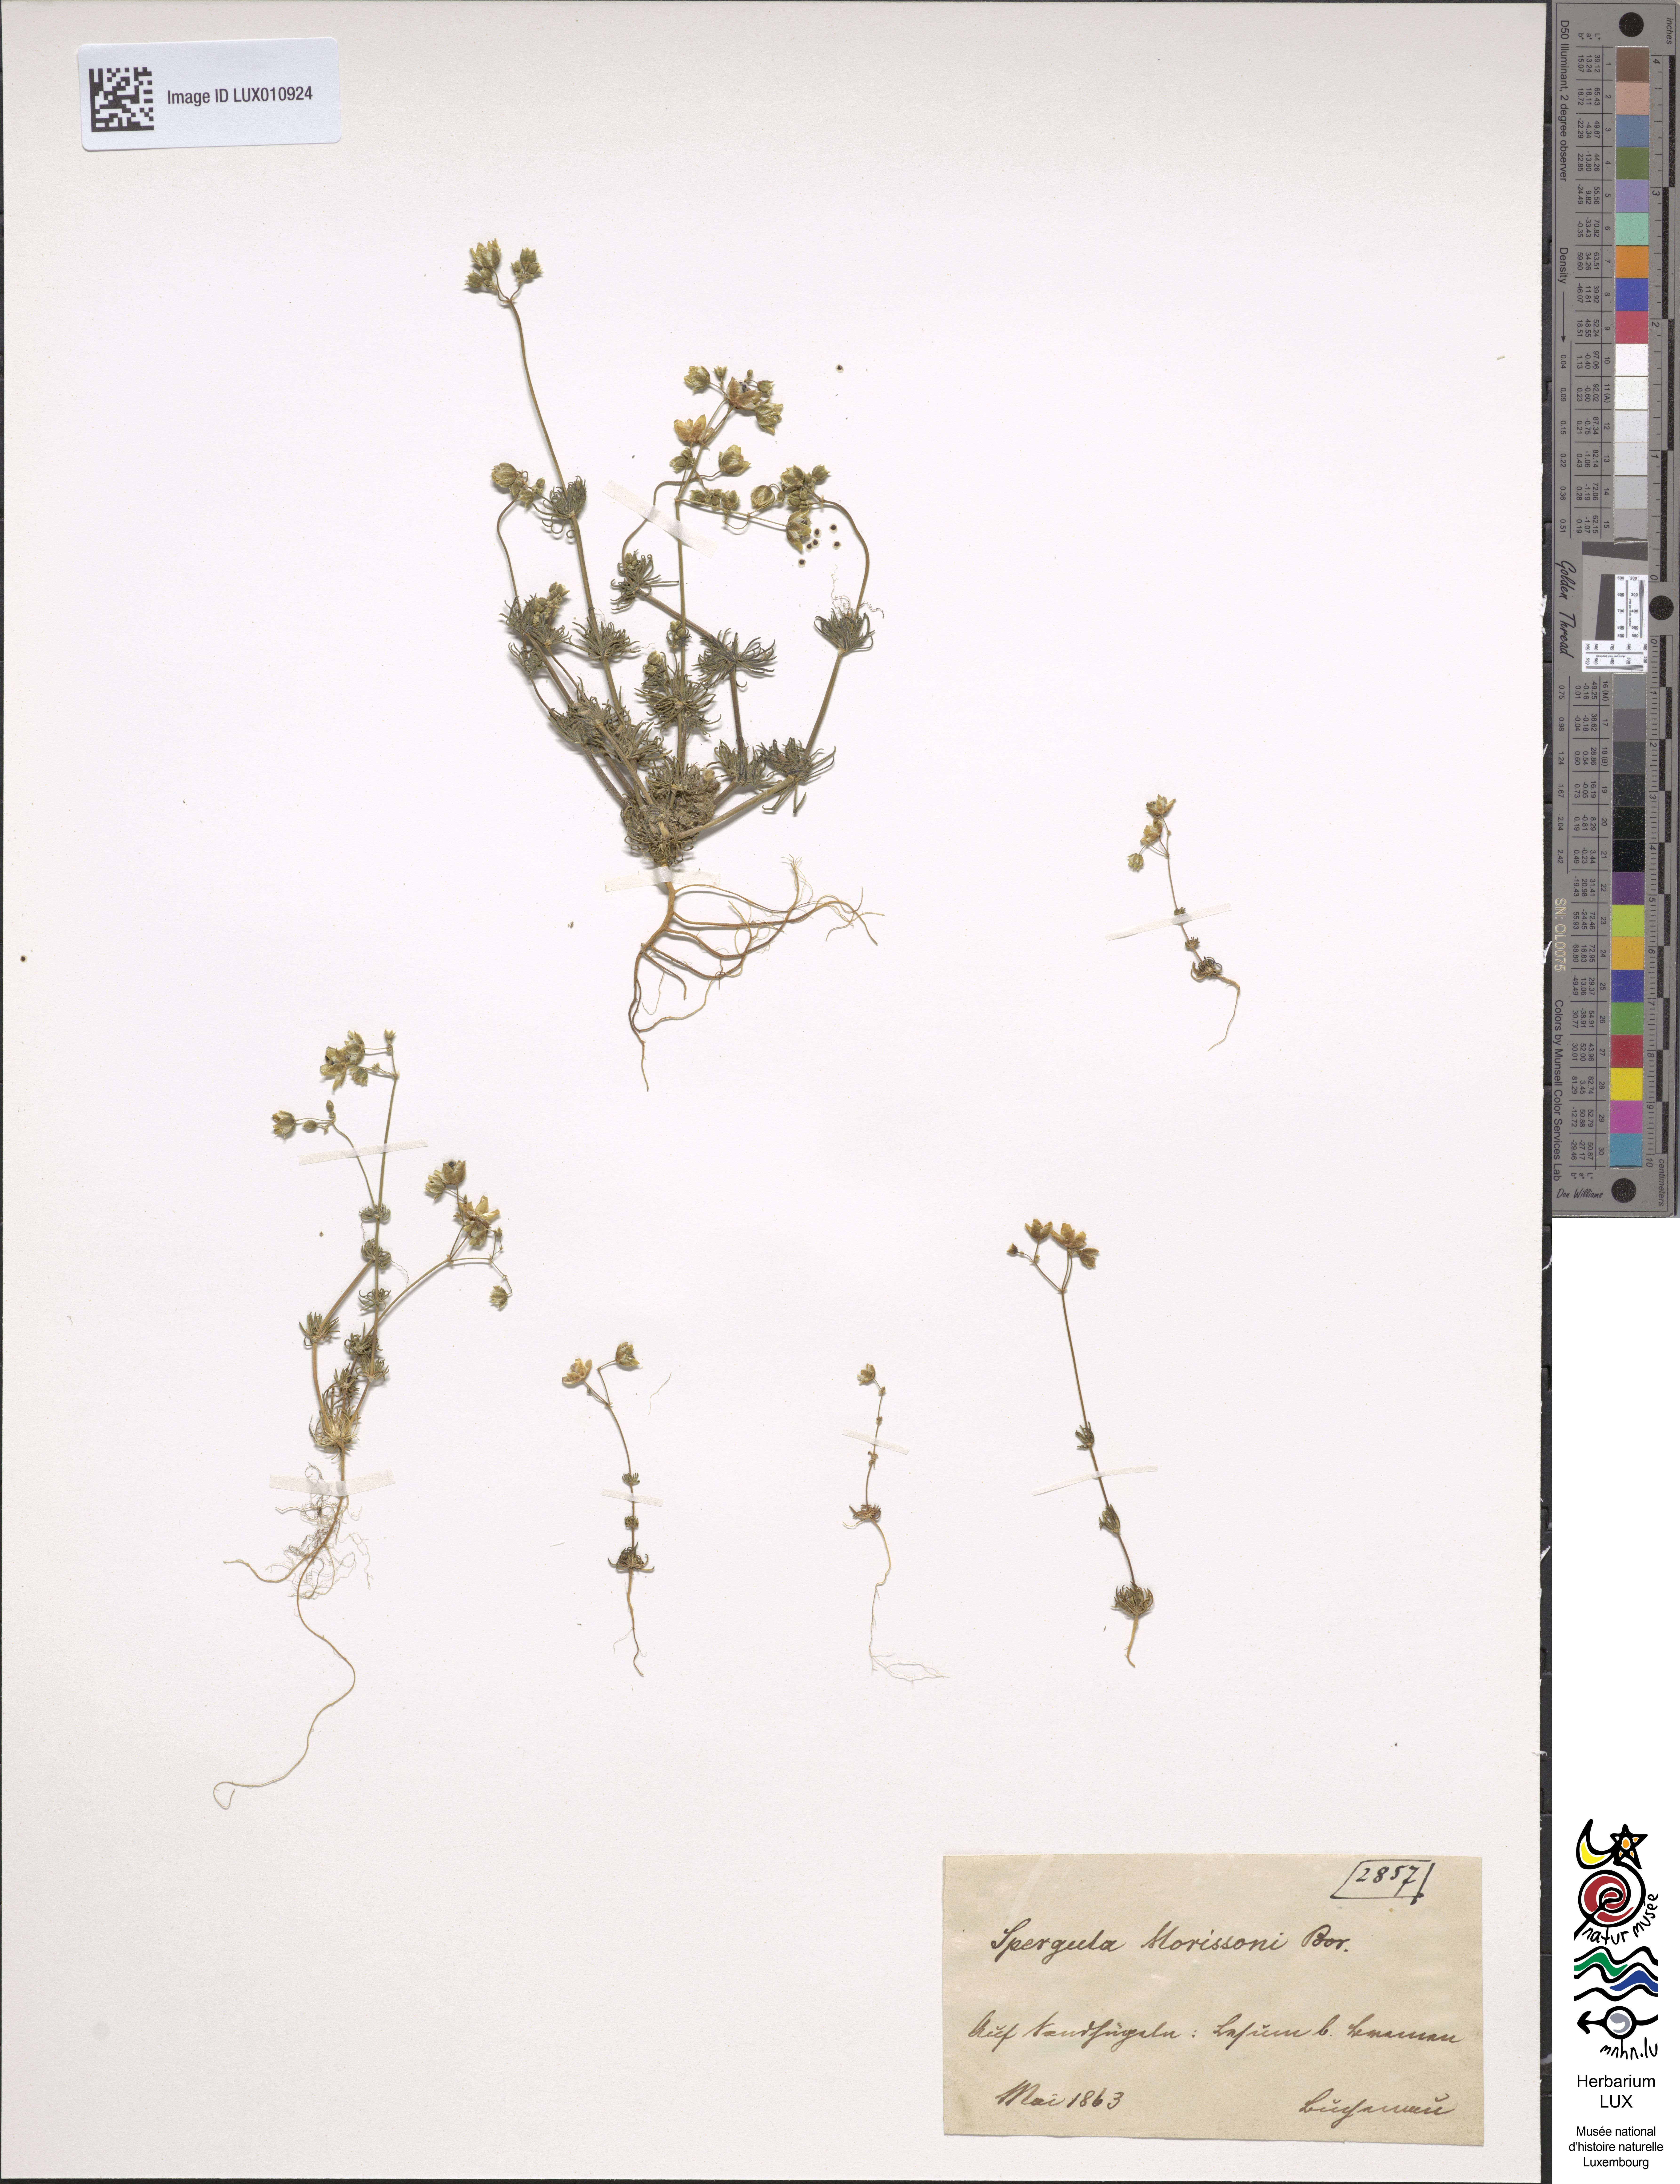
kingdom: Plantae
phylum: Tracheophyta
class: Magnoliopsida
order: Caryophyllales
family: Caryophyllaceae
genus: Spergula
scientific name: Spergula morisonii
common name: Pearlwort spurrey
